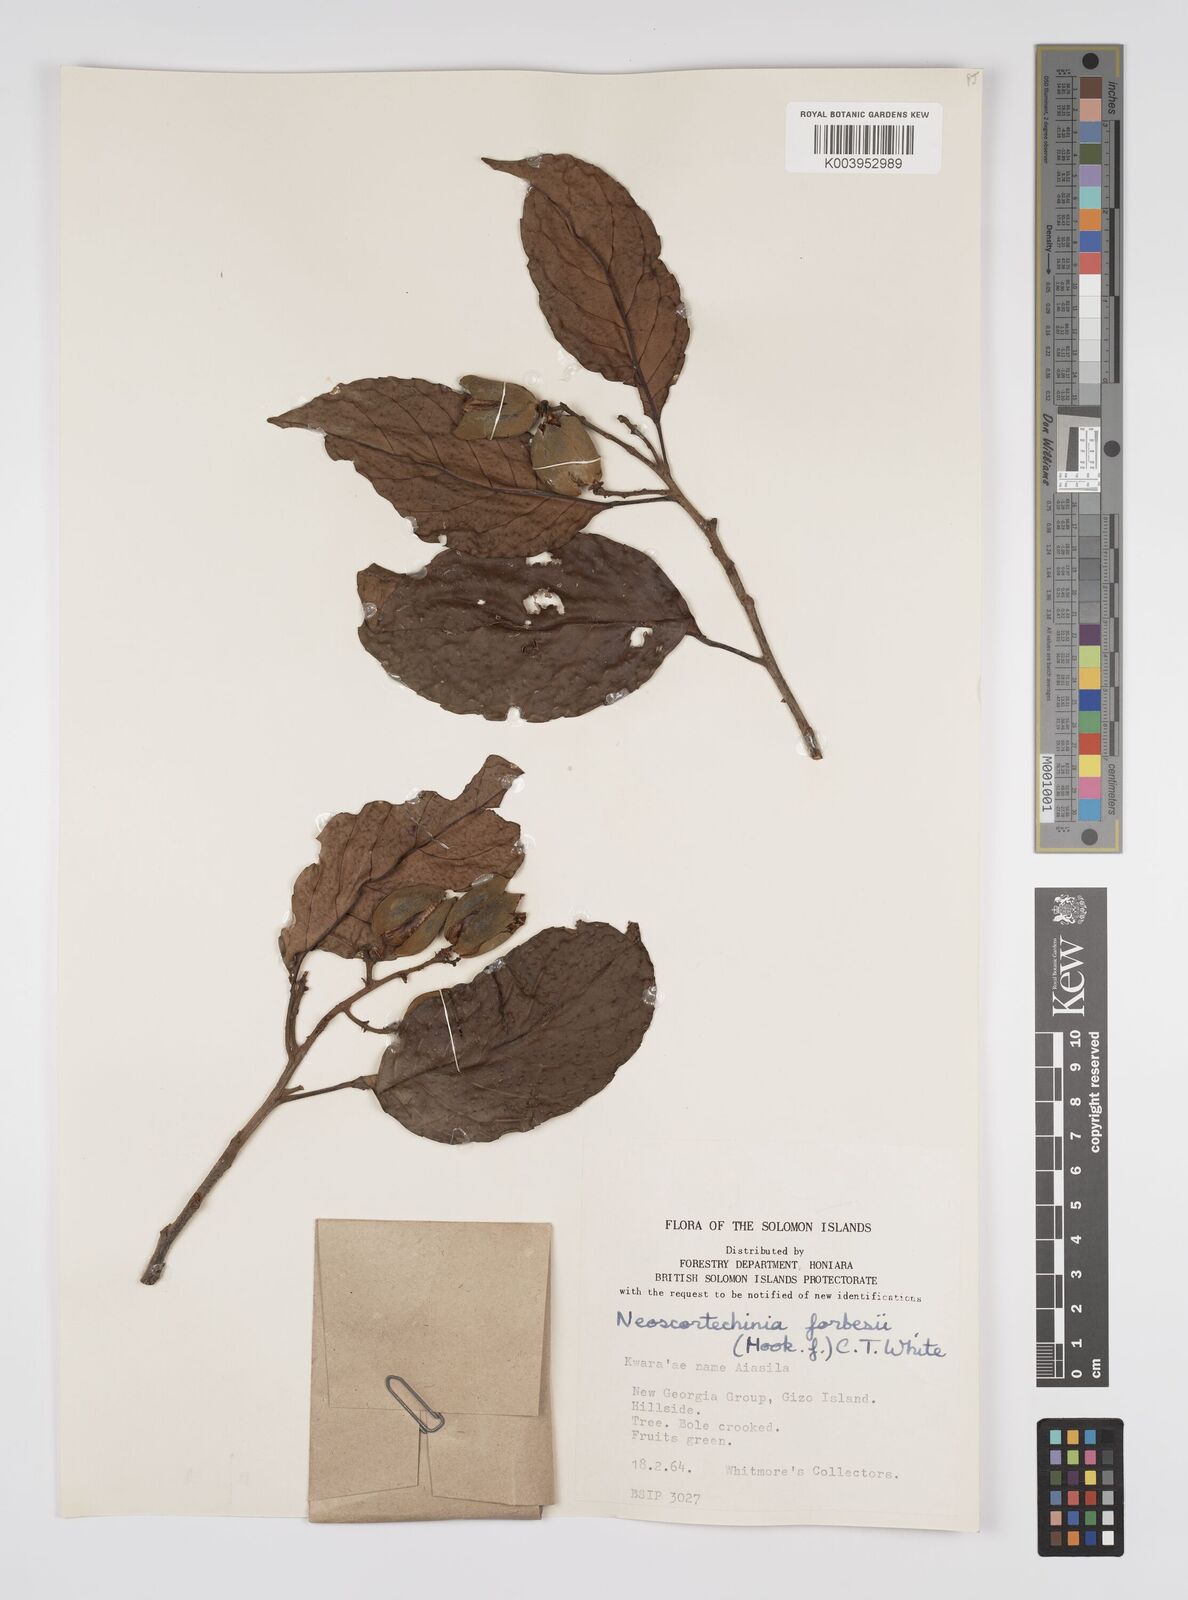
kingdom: Plantae
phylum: Tracheophyta
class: Magnoliopsida
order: Malpighiales
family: Euphorbiaceae
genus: Neoscortechinia
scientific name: Neoscortechinia forbesii
